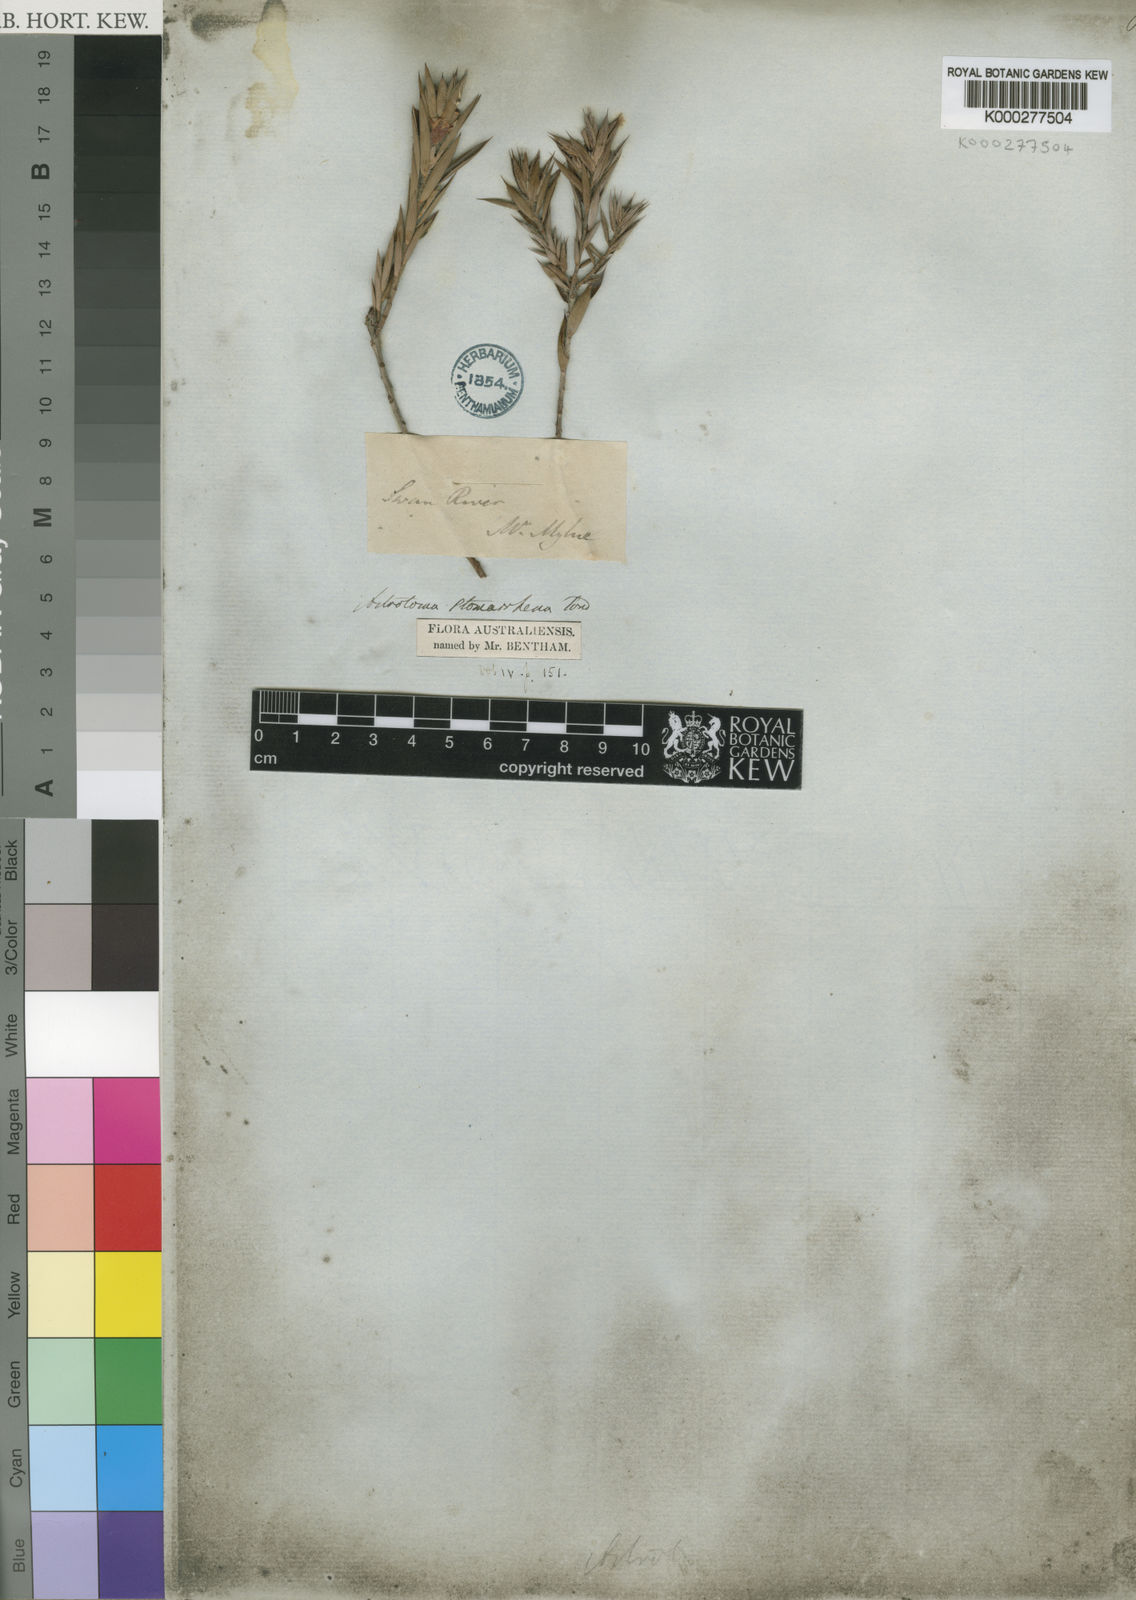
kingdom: Plantae
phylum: Tracheophyta
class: Magnoliopsida
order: Ericales
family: Ericaceae
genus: Styphelia
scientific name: Styphelia stomarrhena
